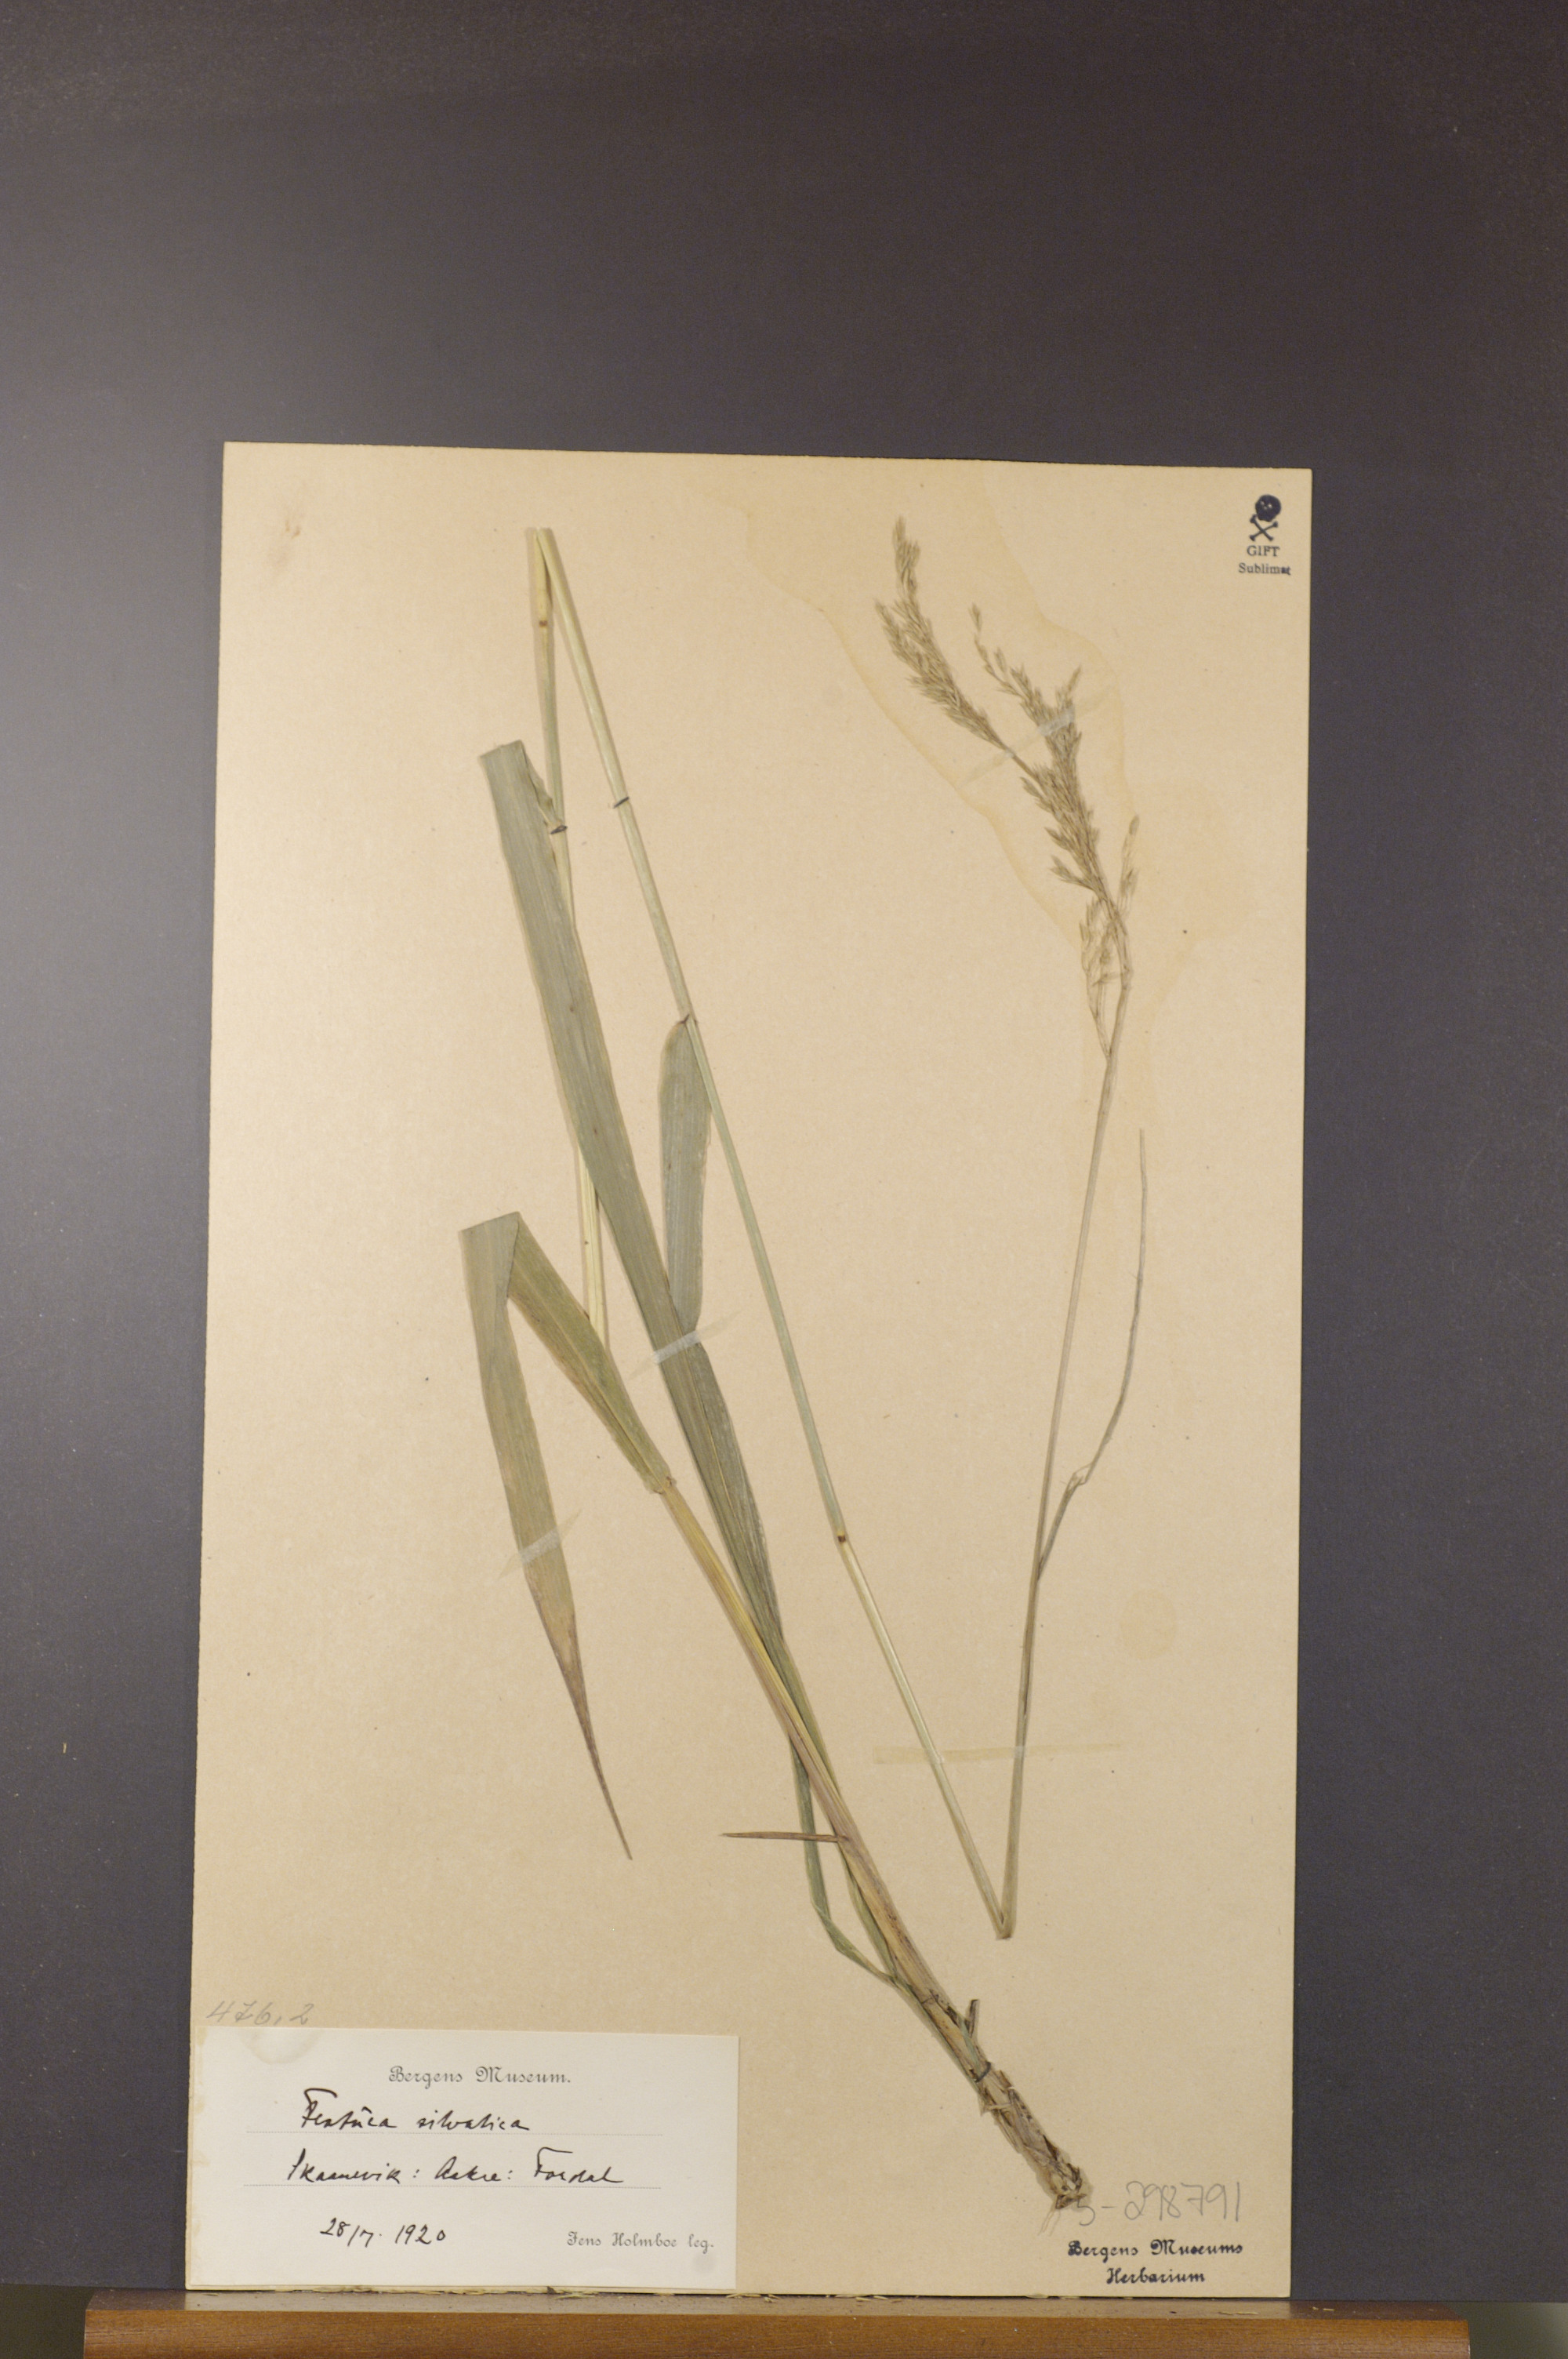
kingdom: Plantae
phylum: Tracheophyta
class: Liliopsida
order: Poales
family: Poaceae
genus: Festuca
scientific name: Festuca altissima
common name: Wood fescue
